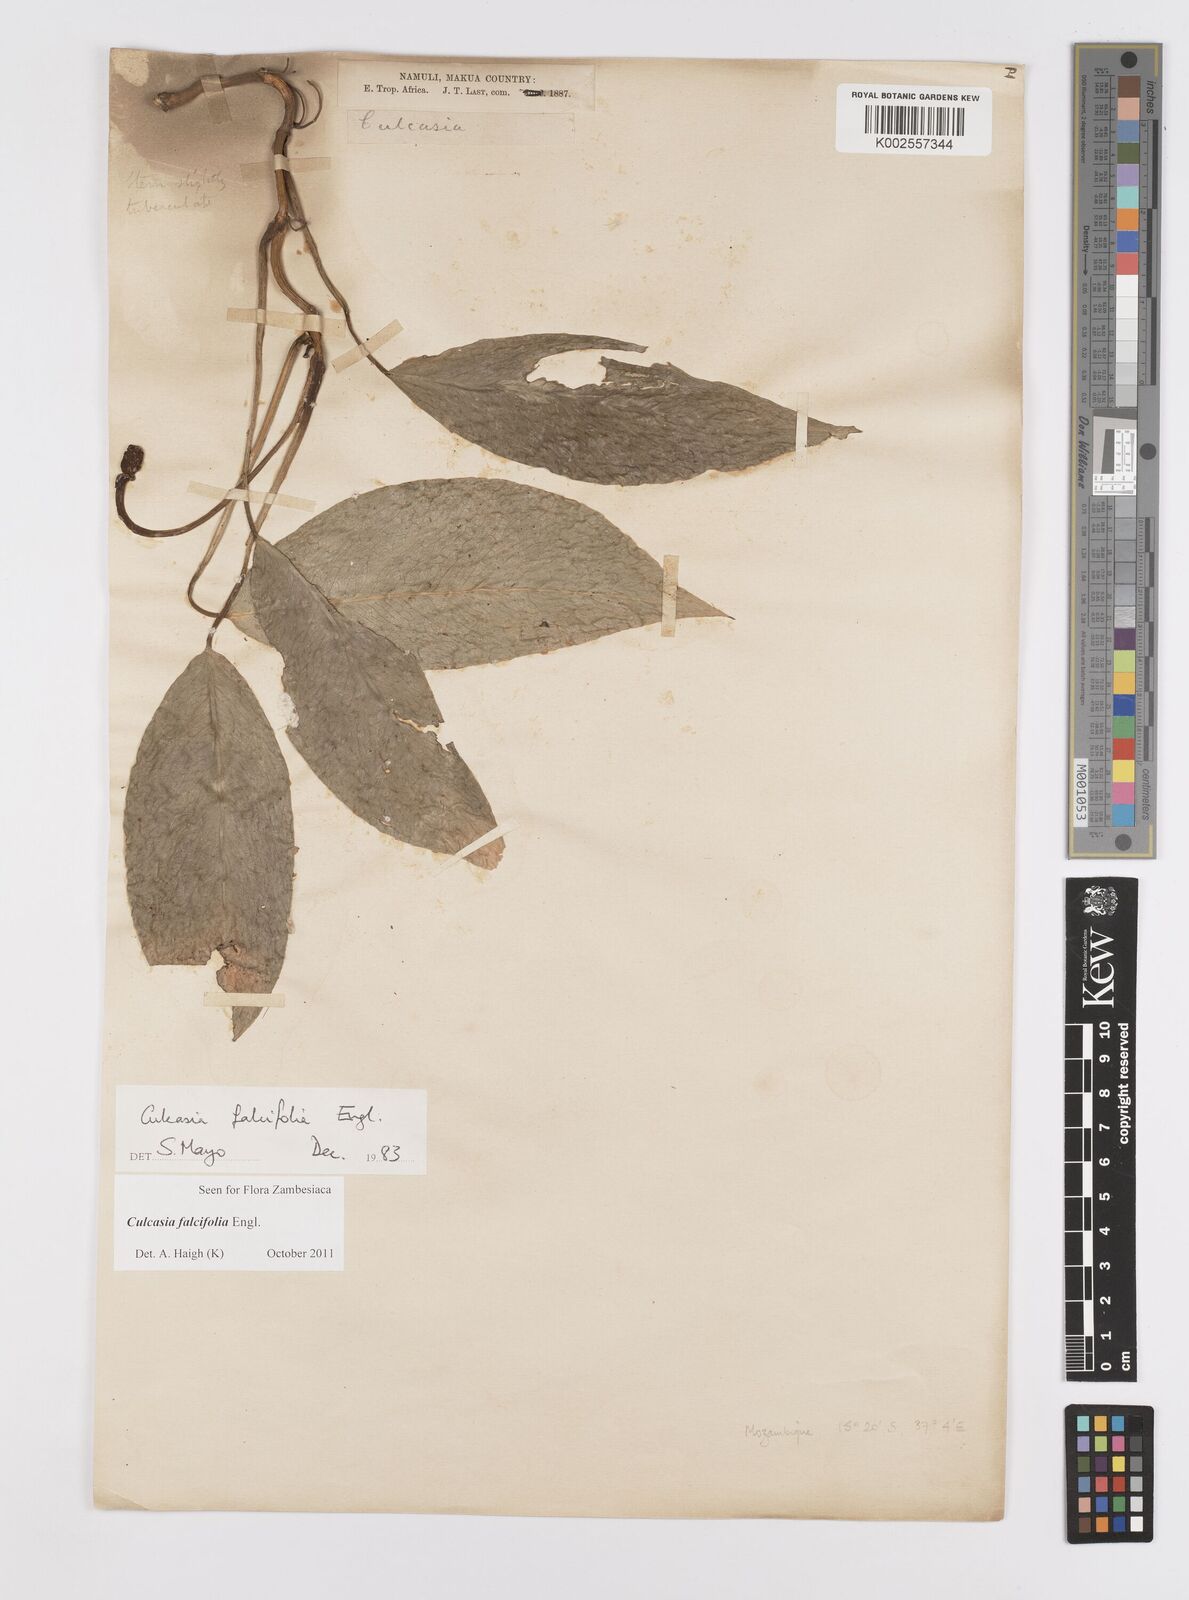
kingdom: Plantae
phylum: Tracheophyta
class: Liliopsida
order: Alismatales
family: Araceae
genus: Culcasia
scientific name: Culcasia falcifolia
